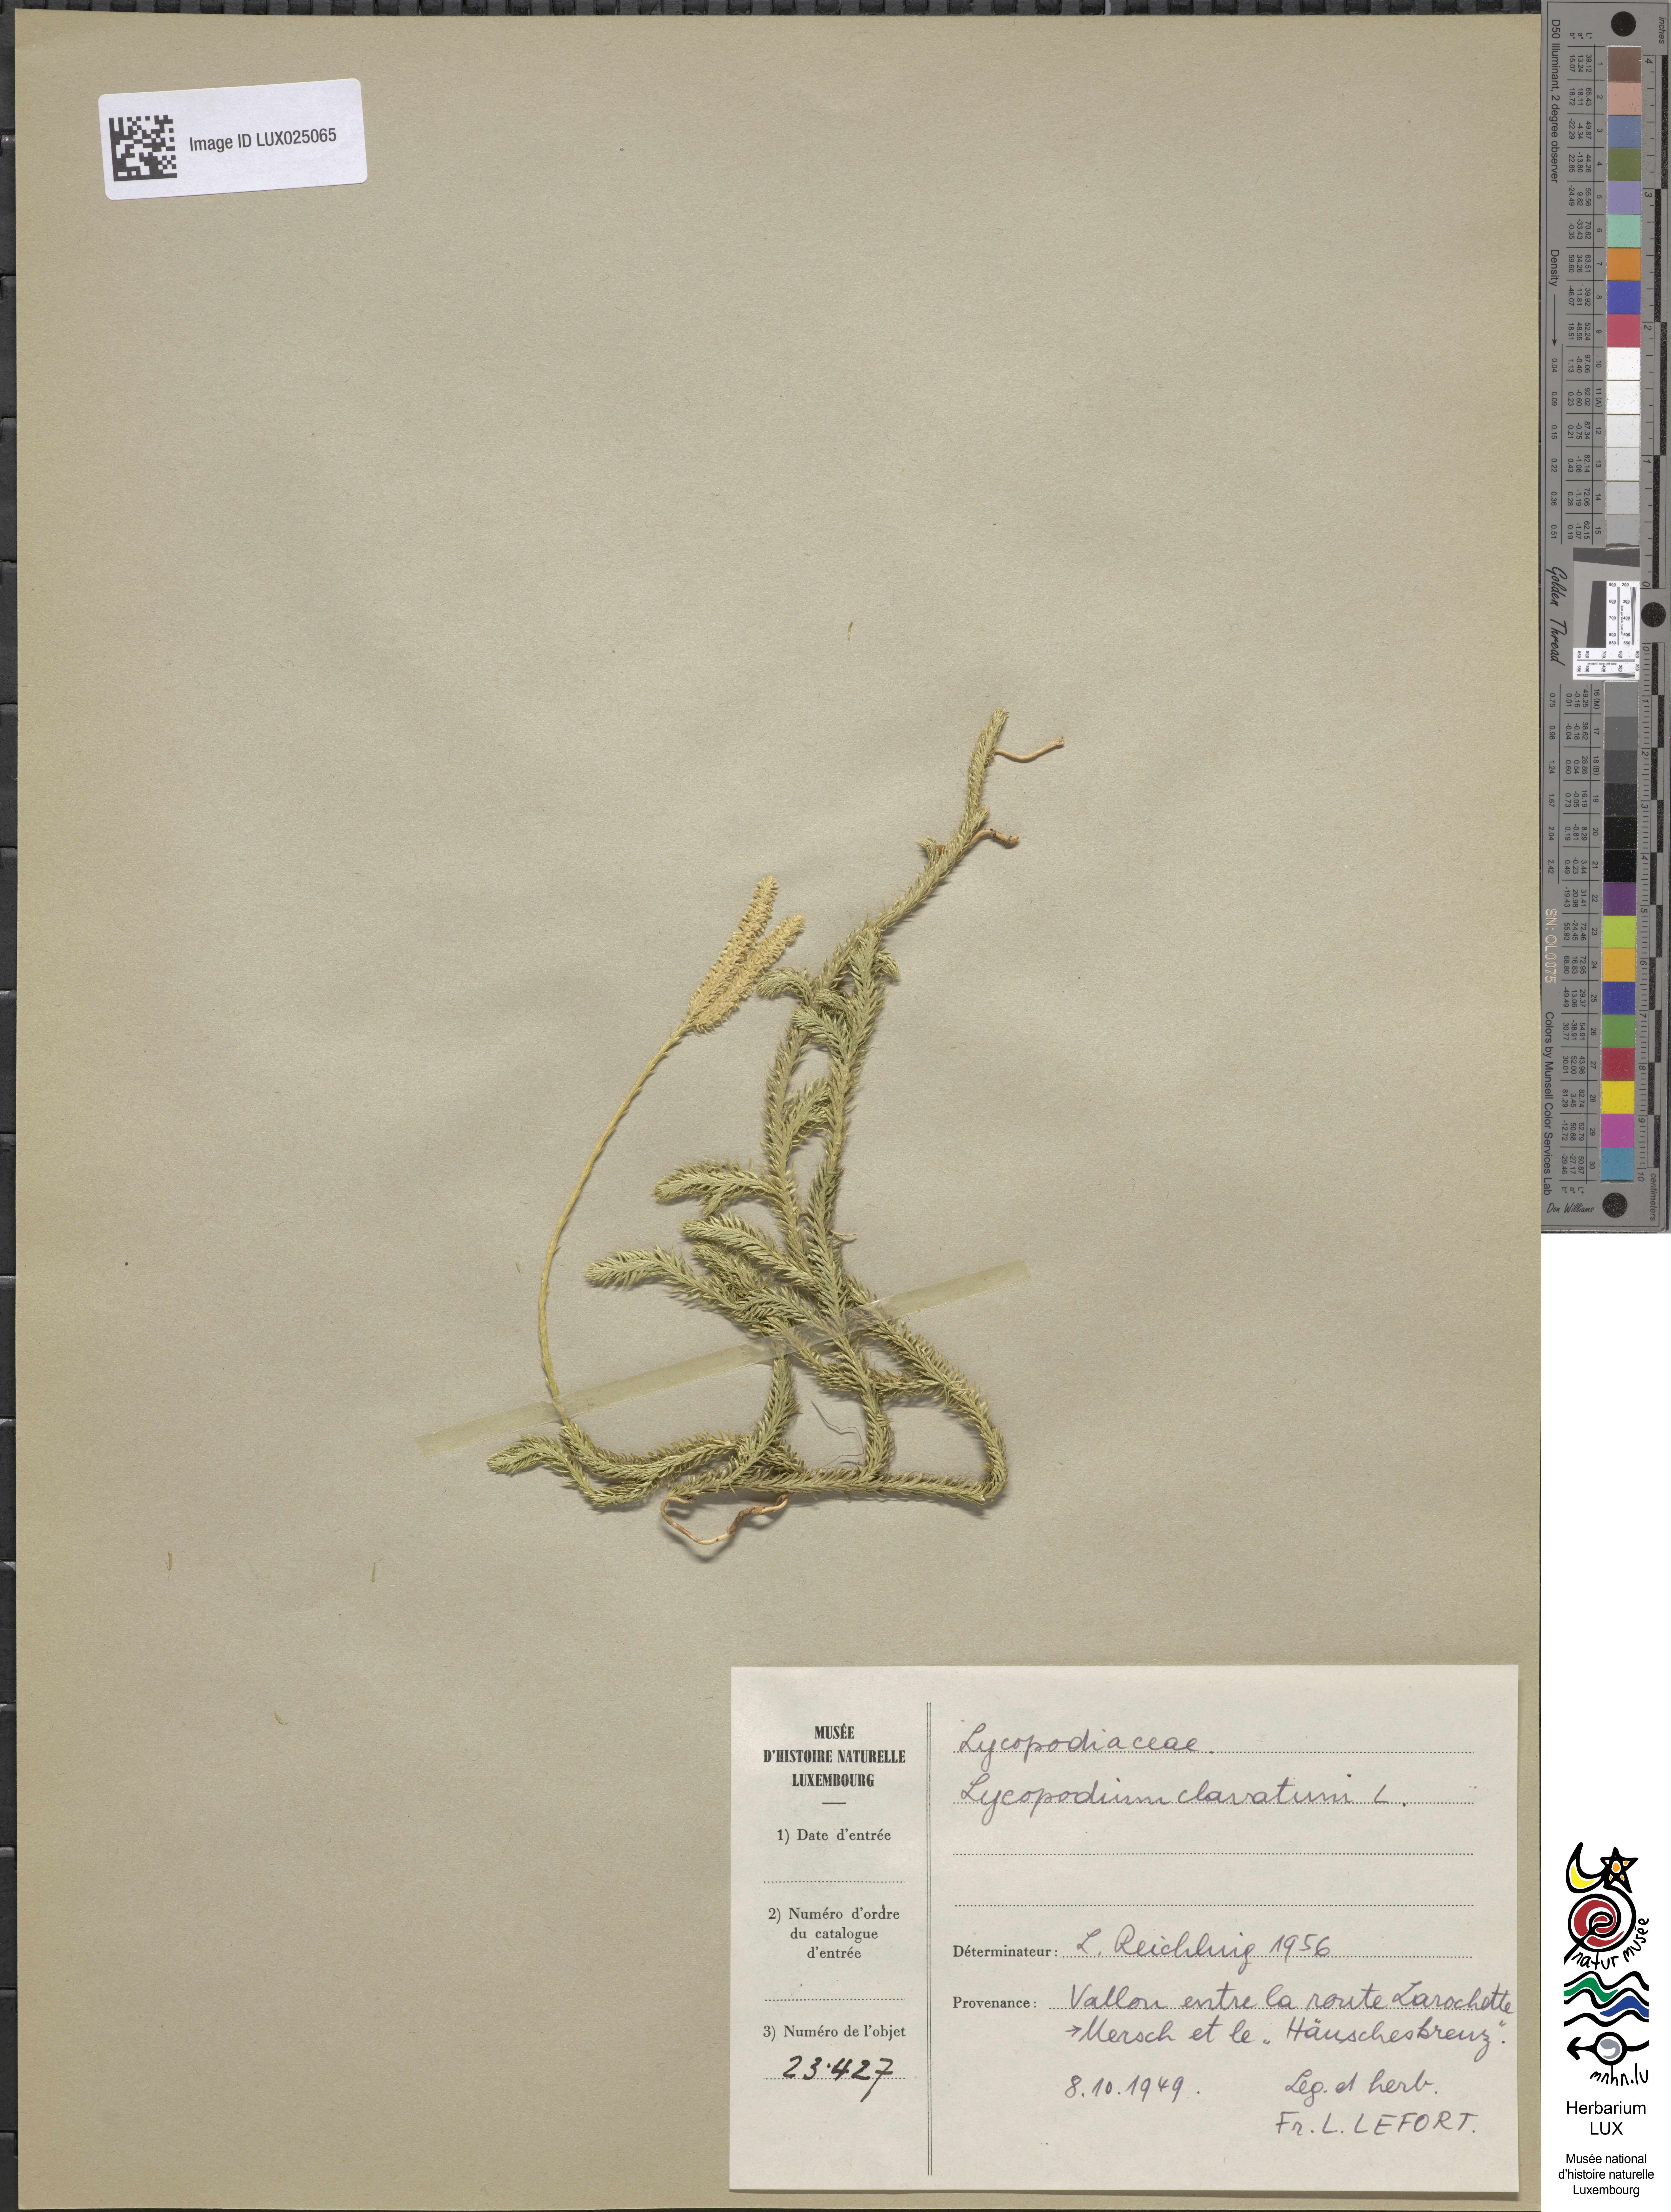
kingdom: Plantae
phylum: Tracheophyta
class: Lycopodiopsida
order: Lycopodiales
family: Lycopodiaceae
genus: Lycopodium
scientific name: Lycopodium clavatum
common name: Stag's-horn clubmoss
